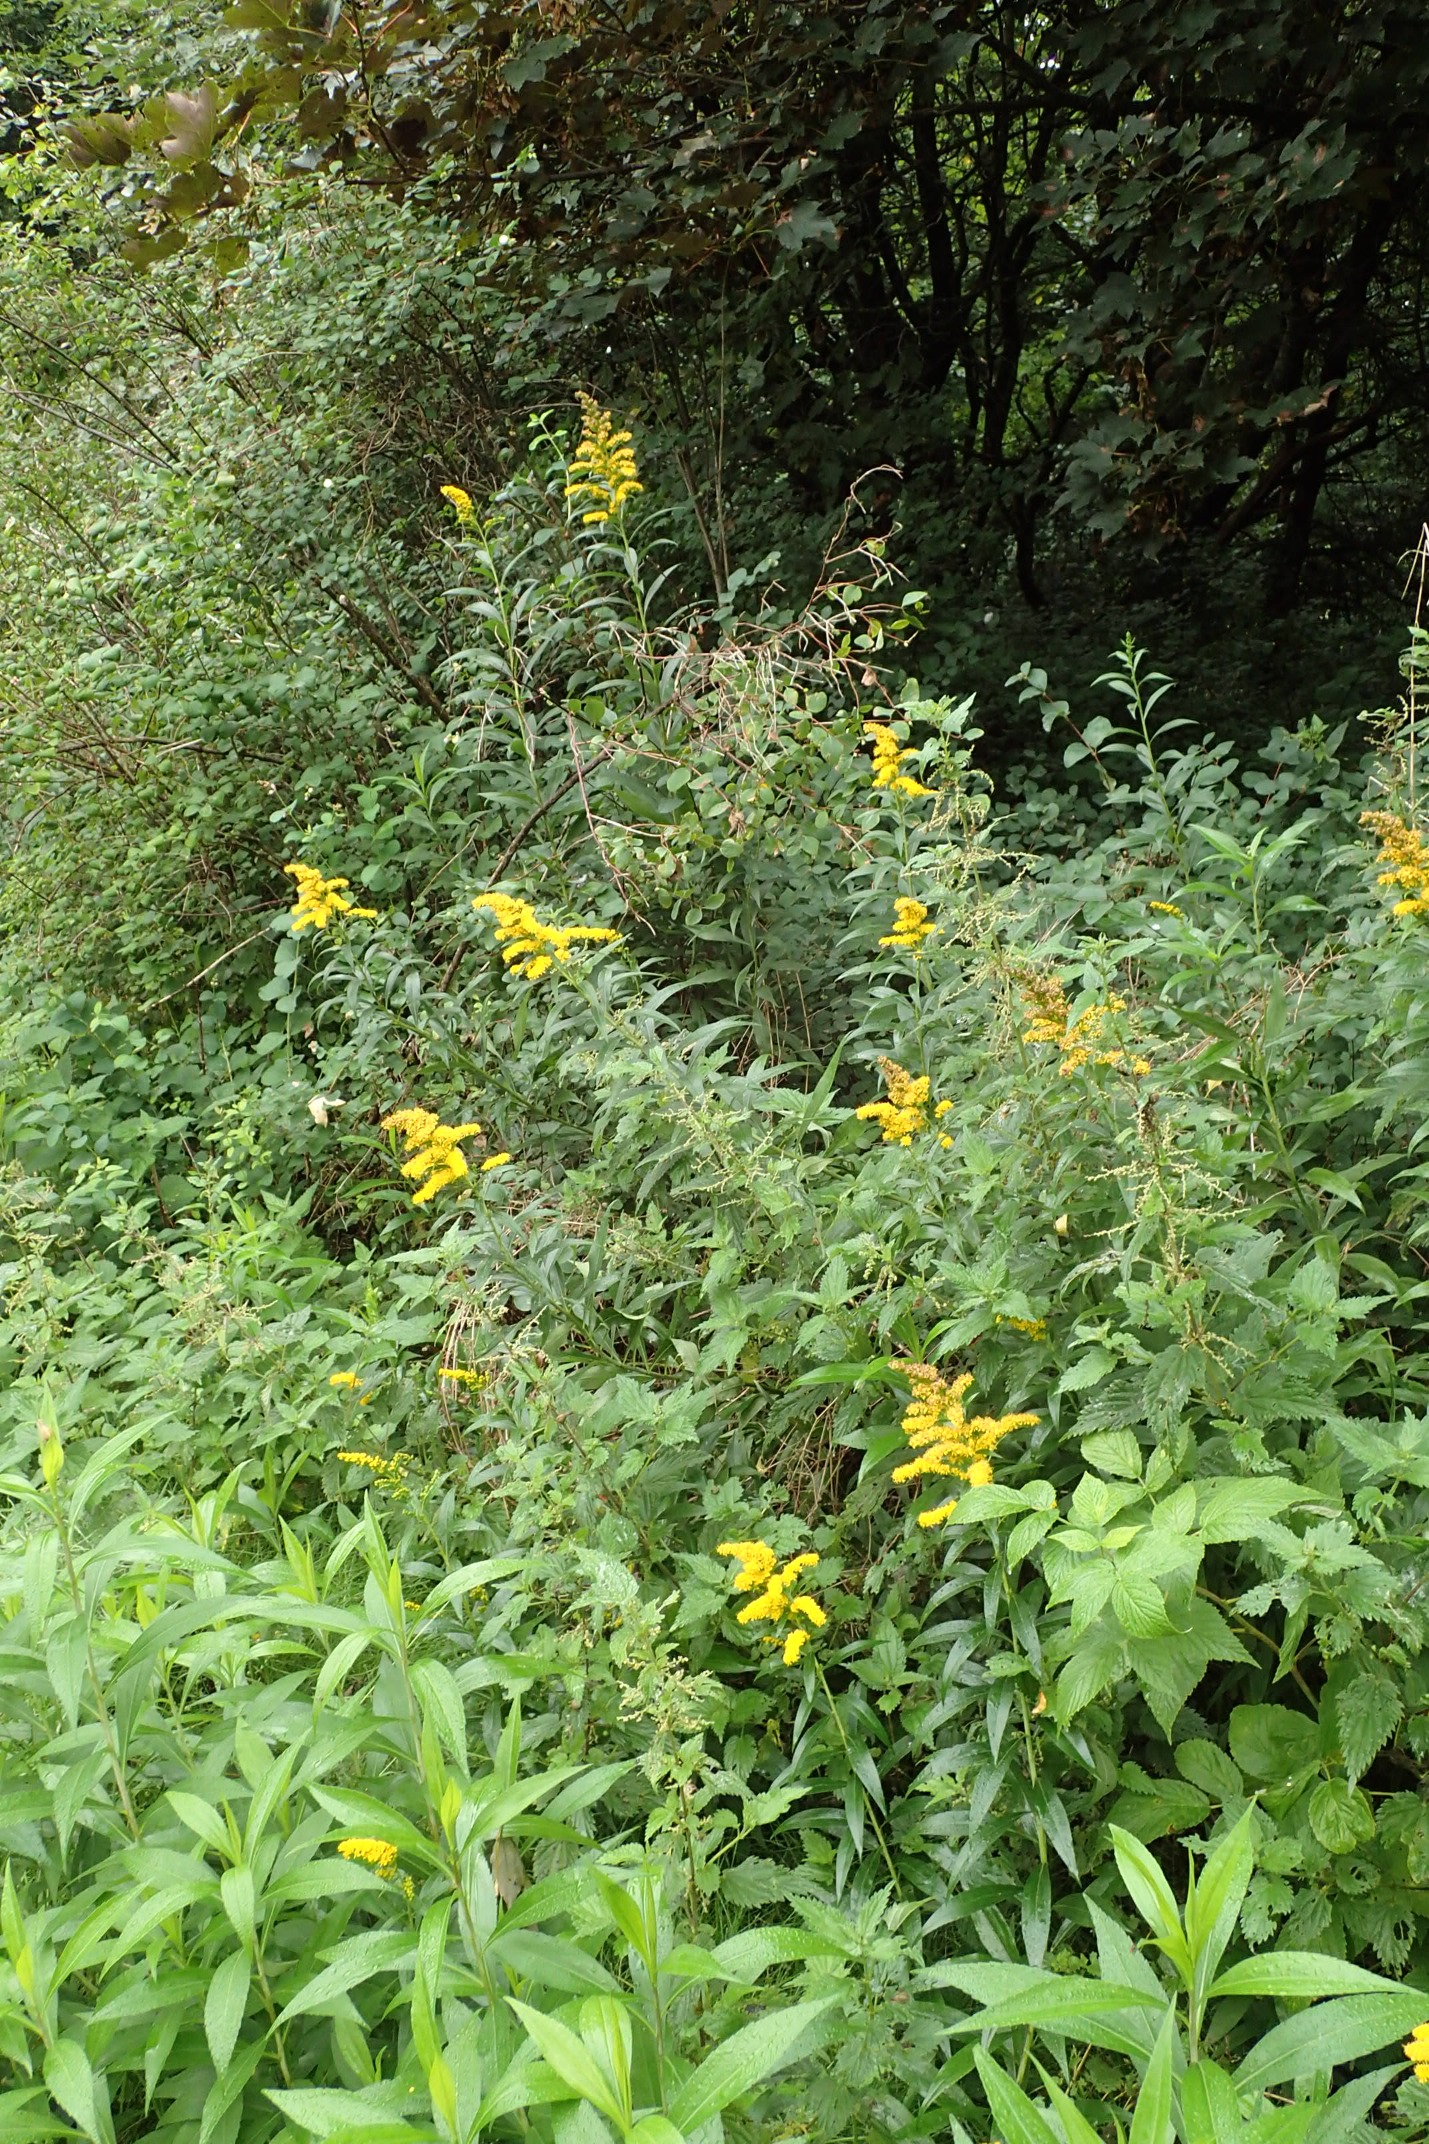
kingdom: Plantae
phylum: Tracheophyta
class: Magnoliopsida
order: Asterales
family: Asteraceae
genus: Solidago
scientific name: Solidago gigantea
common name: Sildig gyldenris
